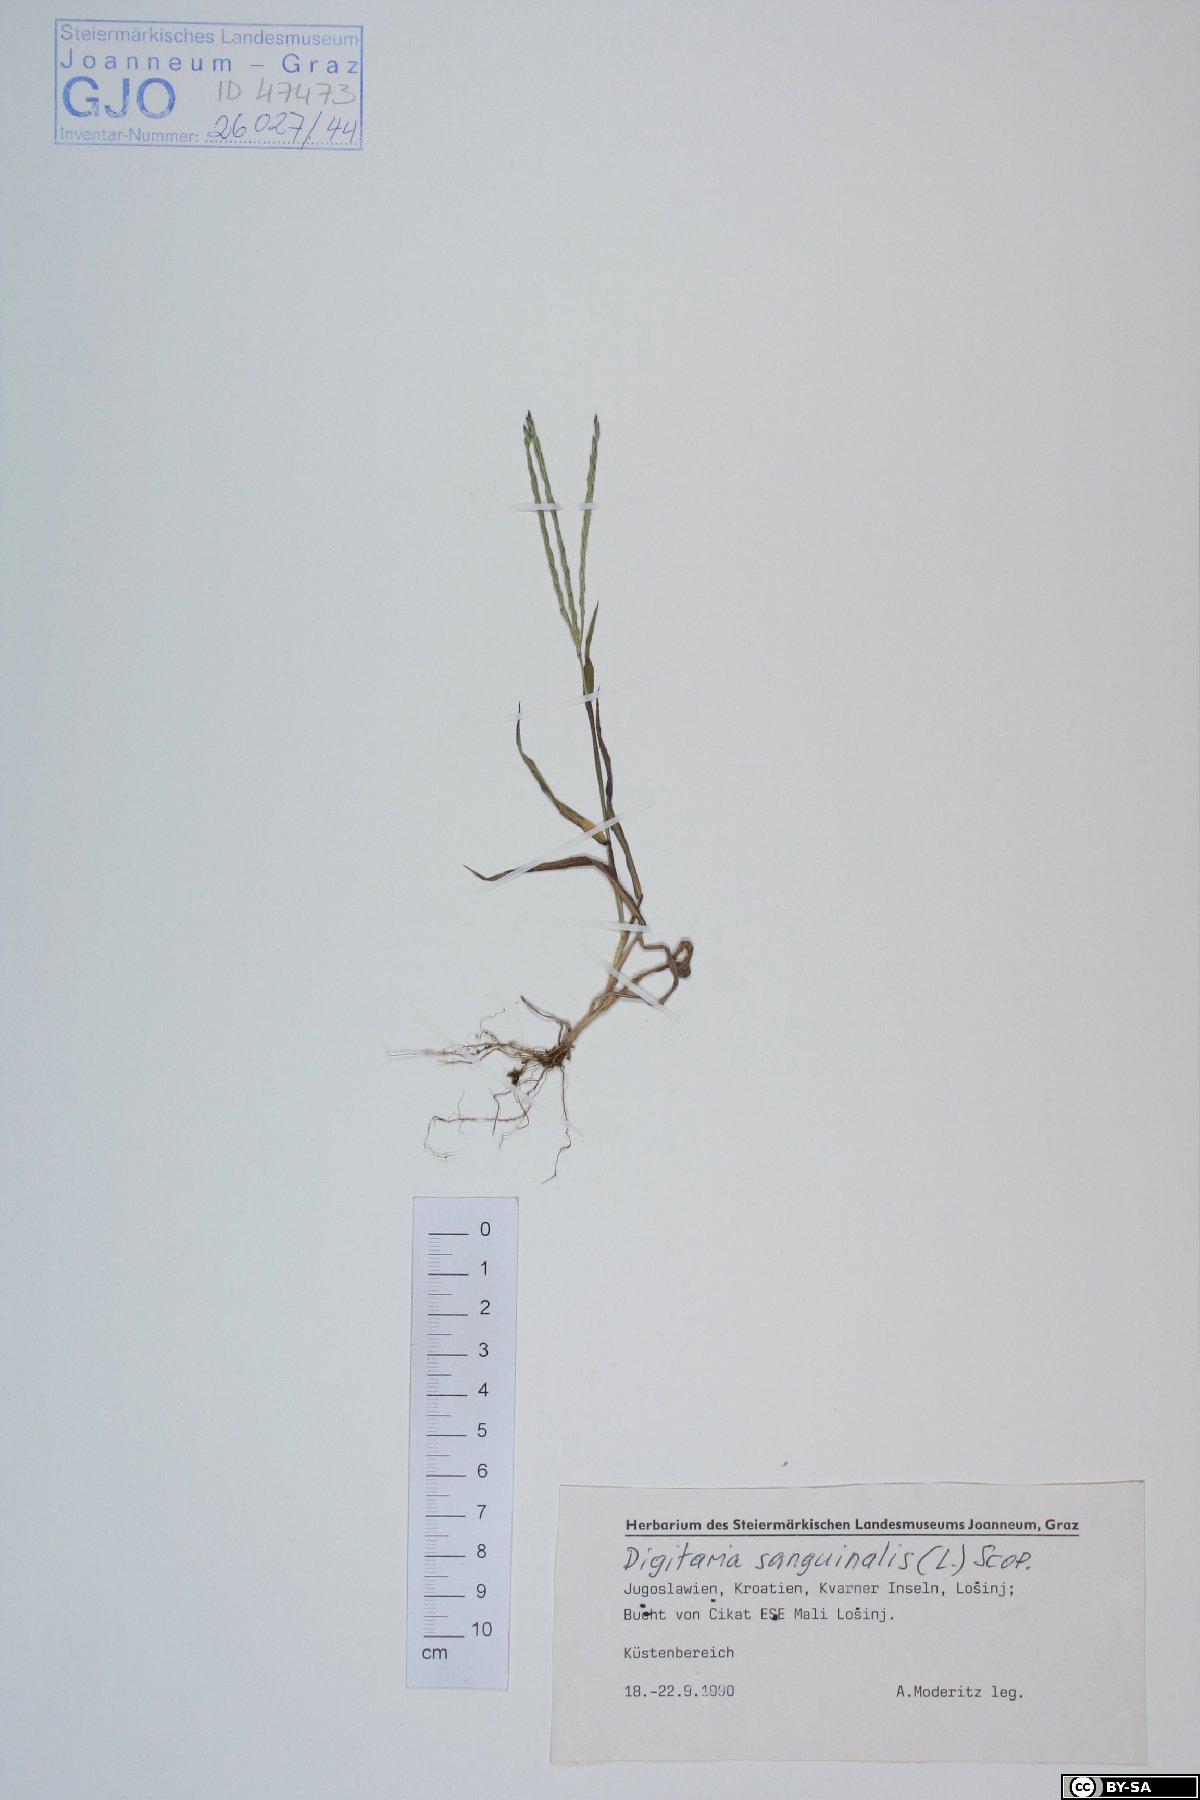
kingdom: Plantae
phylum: Tracheophyta
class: Liliopsida
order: Poales
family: Poaceae
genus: Digitaria
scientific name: Digitaria sanguinalis
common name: Hairy crabgrass
